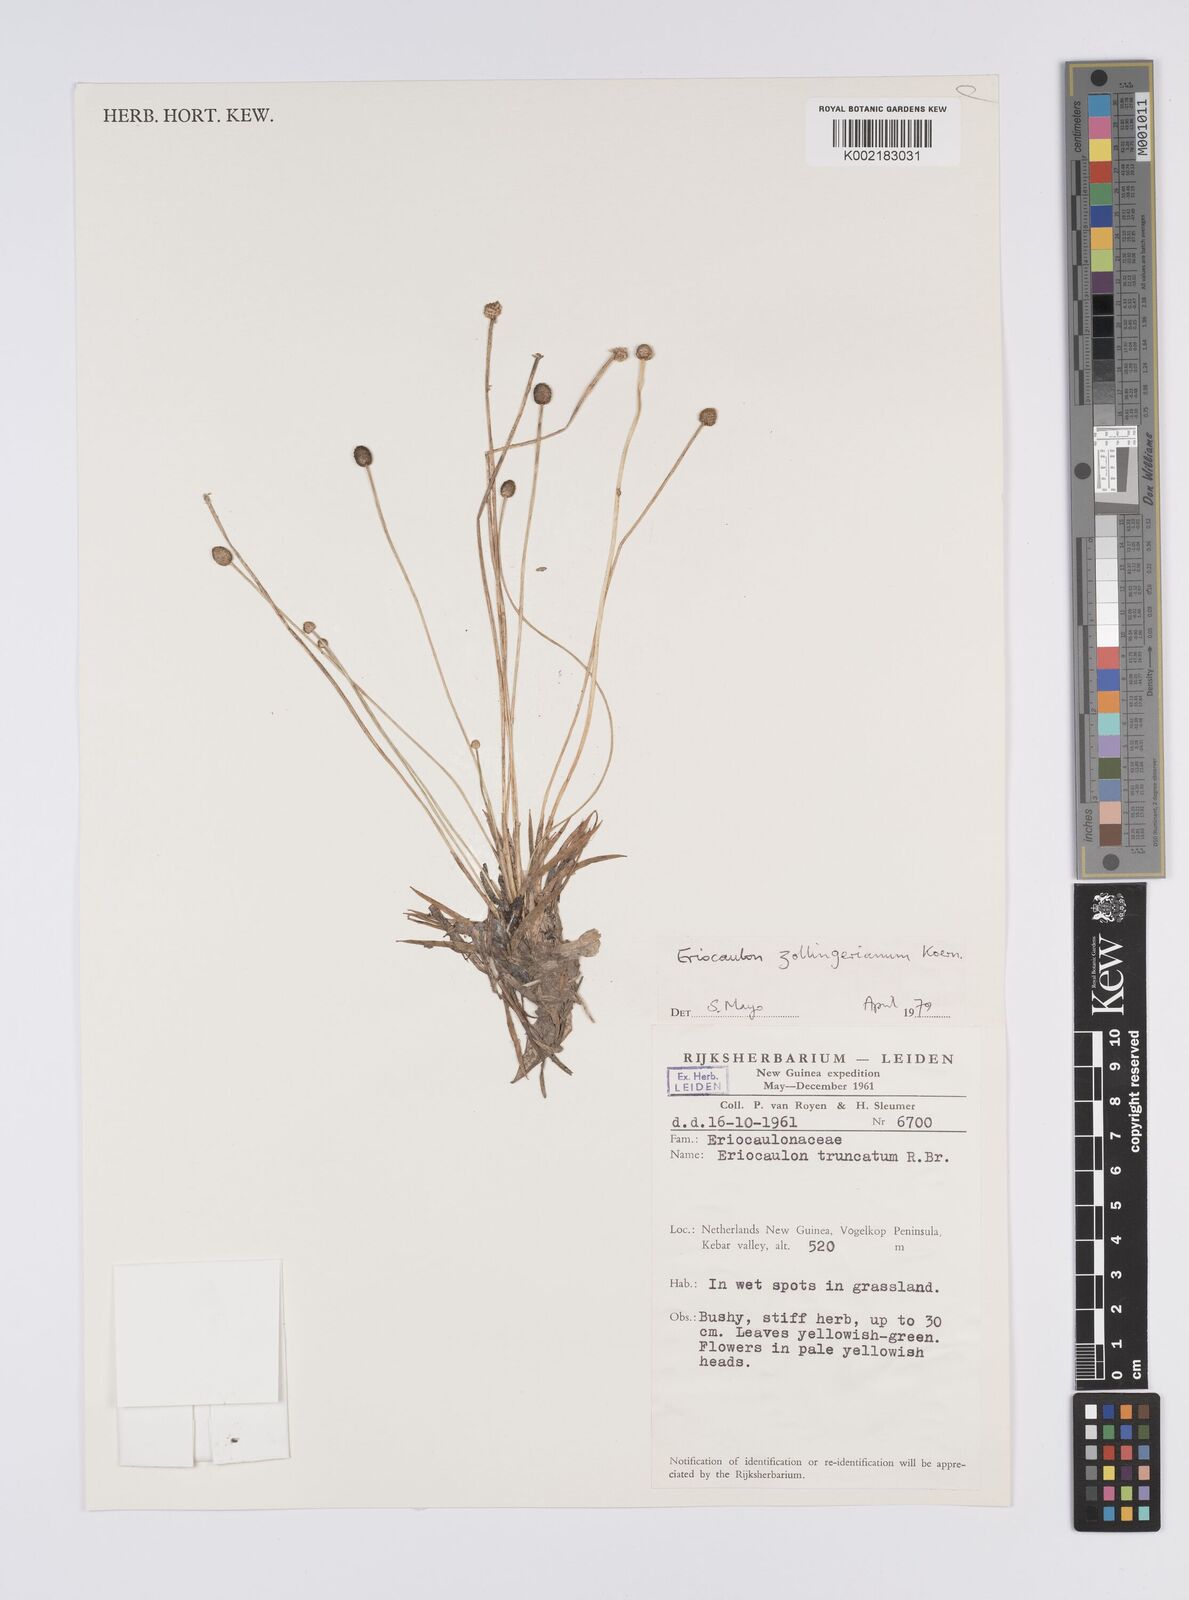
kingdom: Plantae
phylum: Tracheophyta
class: Liliopsida
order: Poales
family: Eriocaulaceae
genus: Eriocaulon
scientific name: Eriocaulon zollingerianum
